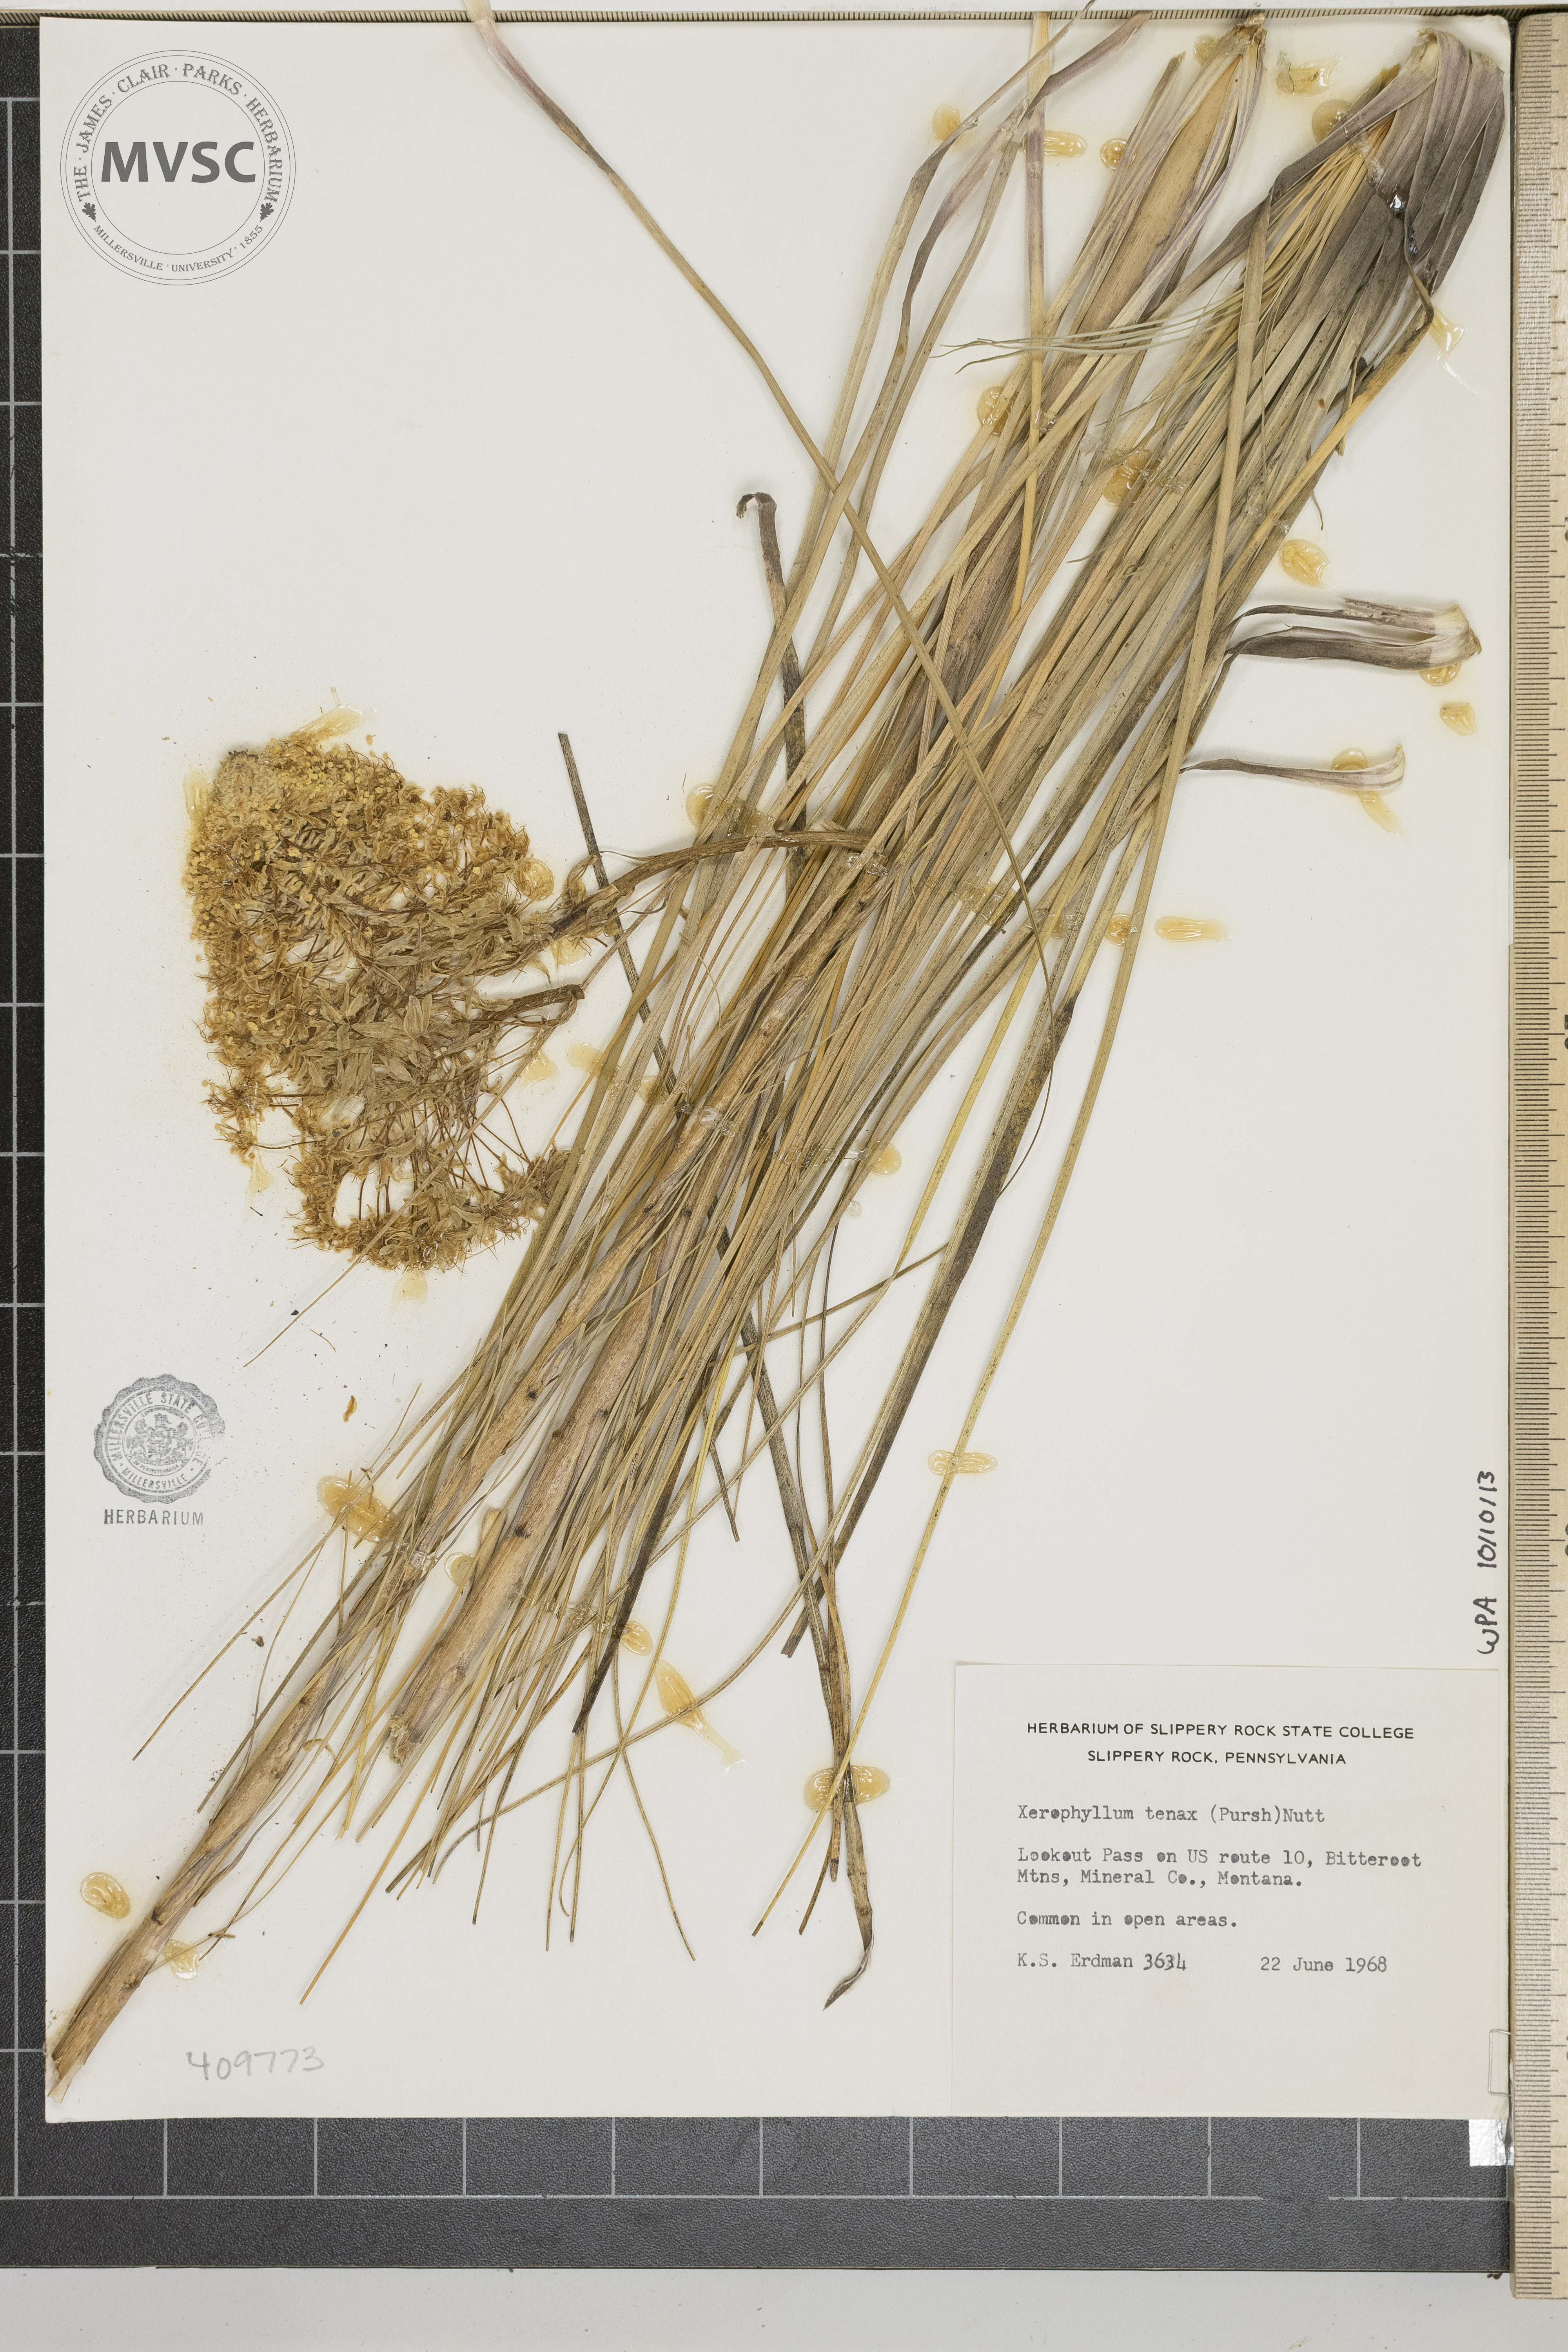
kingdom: Plantae
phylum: Tracheophyta
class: Liliopsida
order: Liliales
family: Melanthiaceae
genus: Xerophyllum
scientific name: Xerophyllum tenax
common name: Bear-grass
